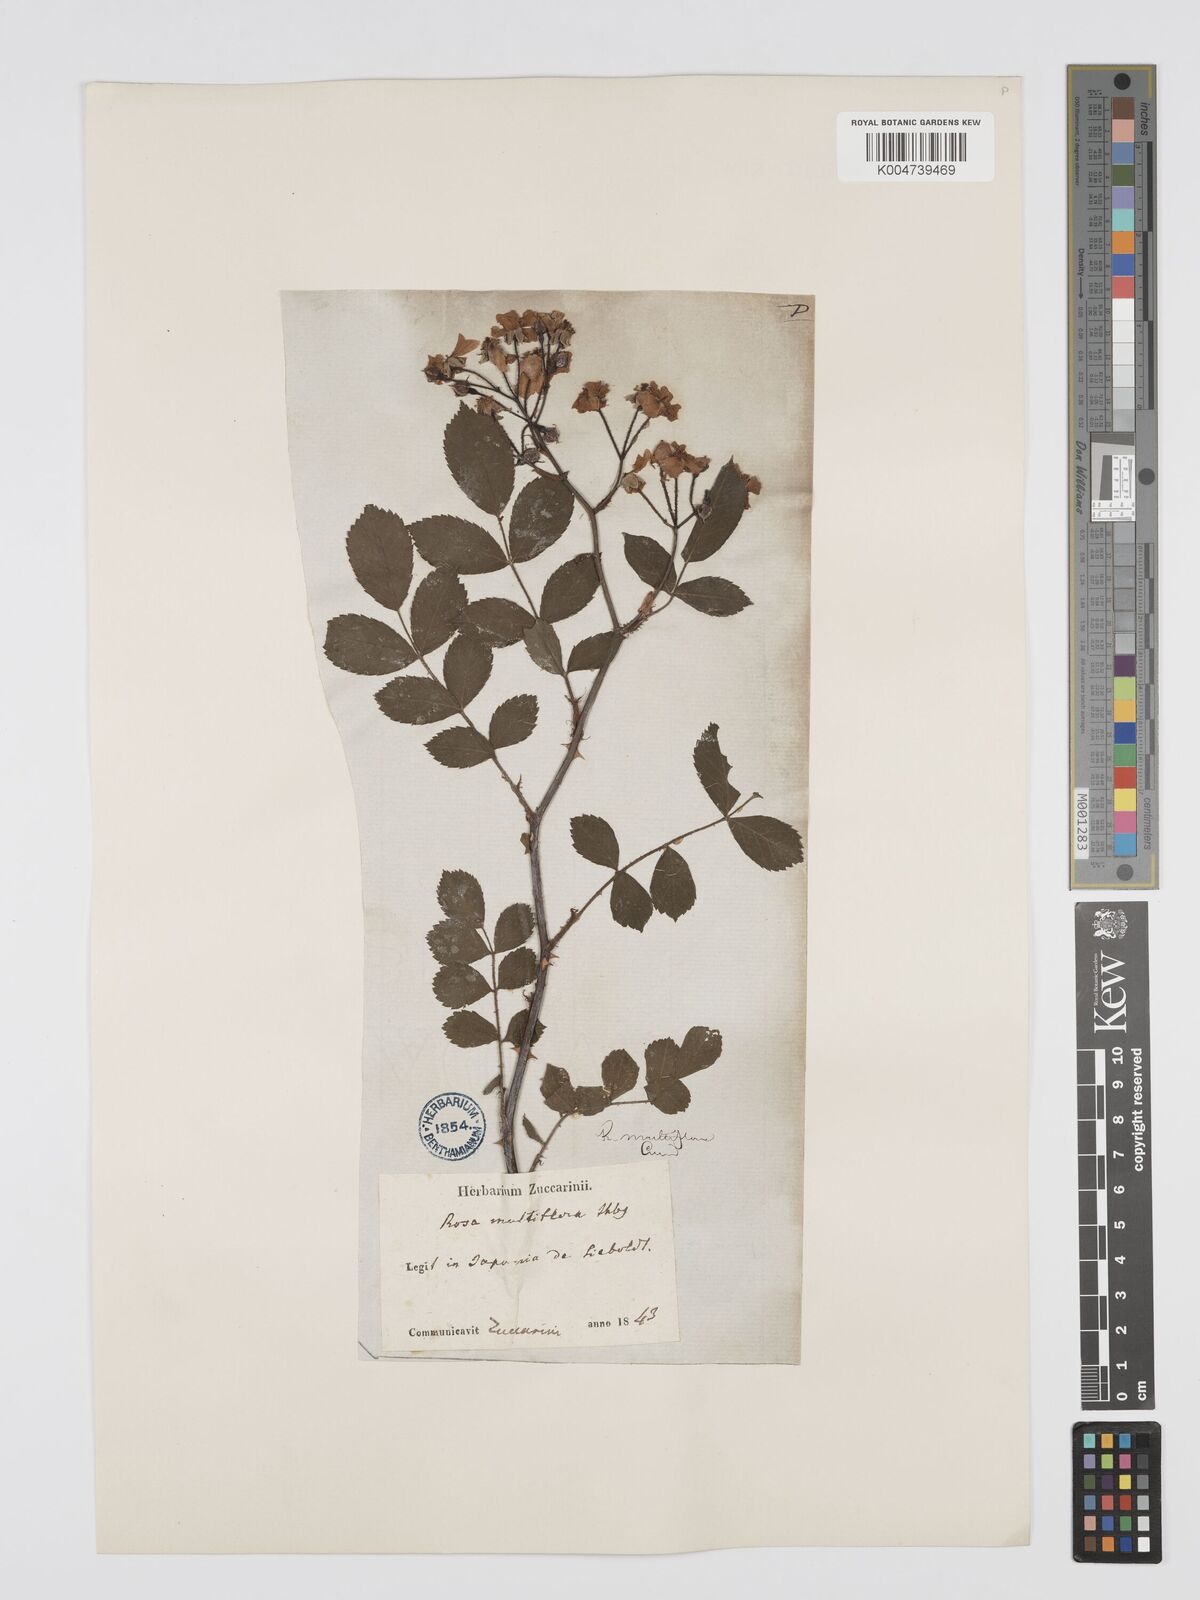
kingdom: Plantae
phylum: Tracheophyta
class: Magnoliopsida
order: Rosales
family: Rosaceae
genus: Rosa
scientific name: Rosa
